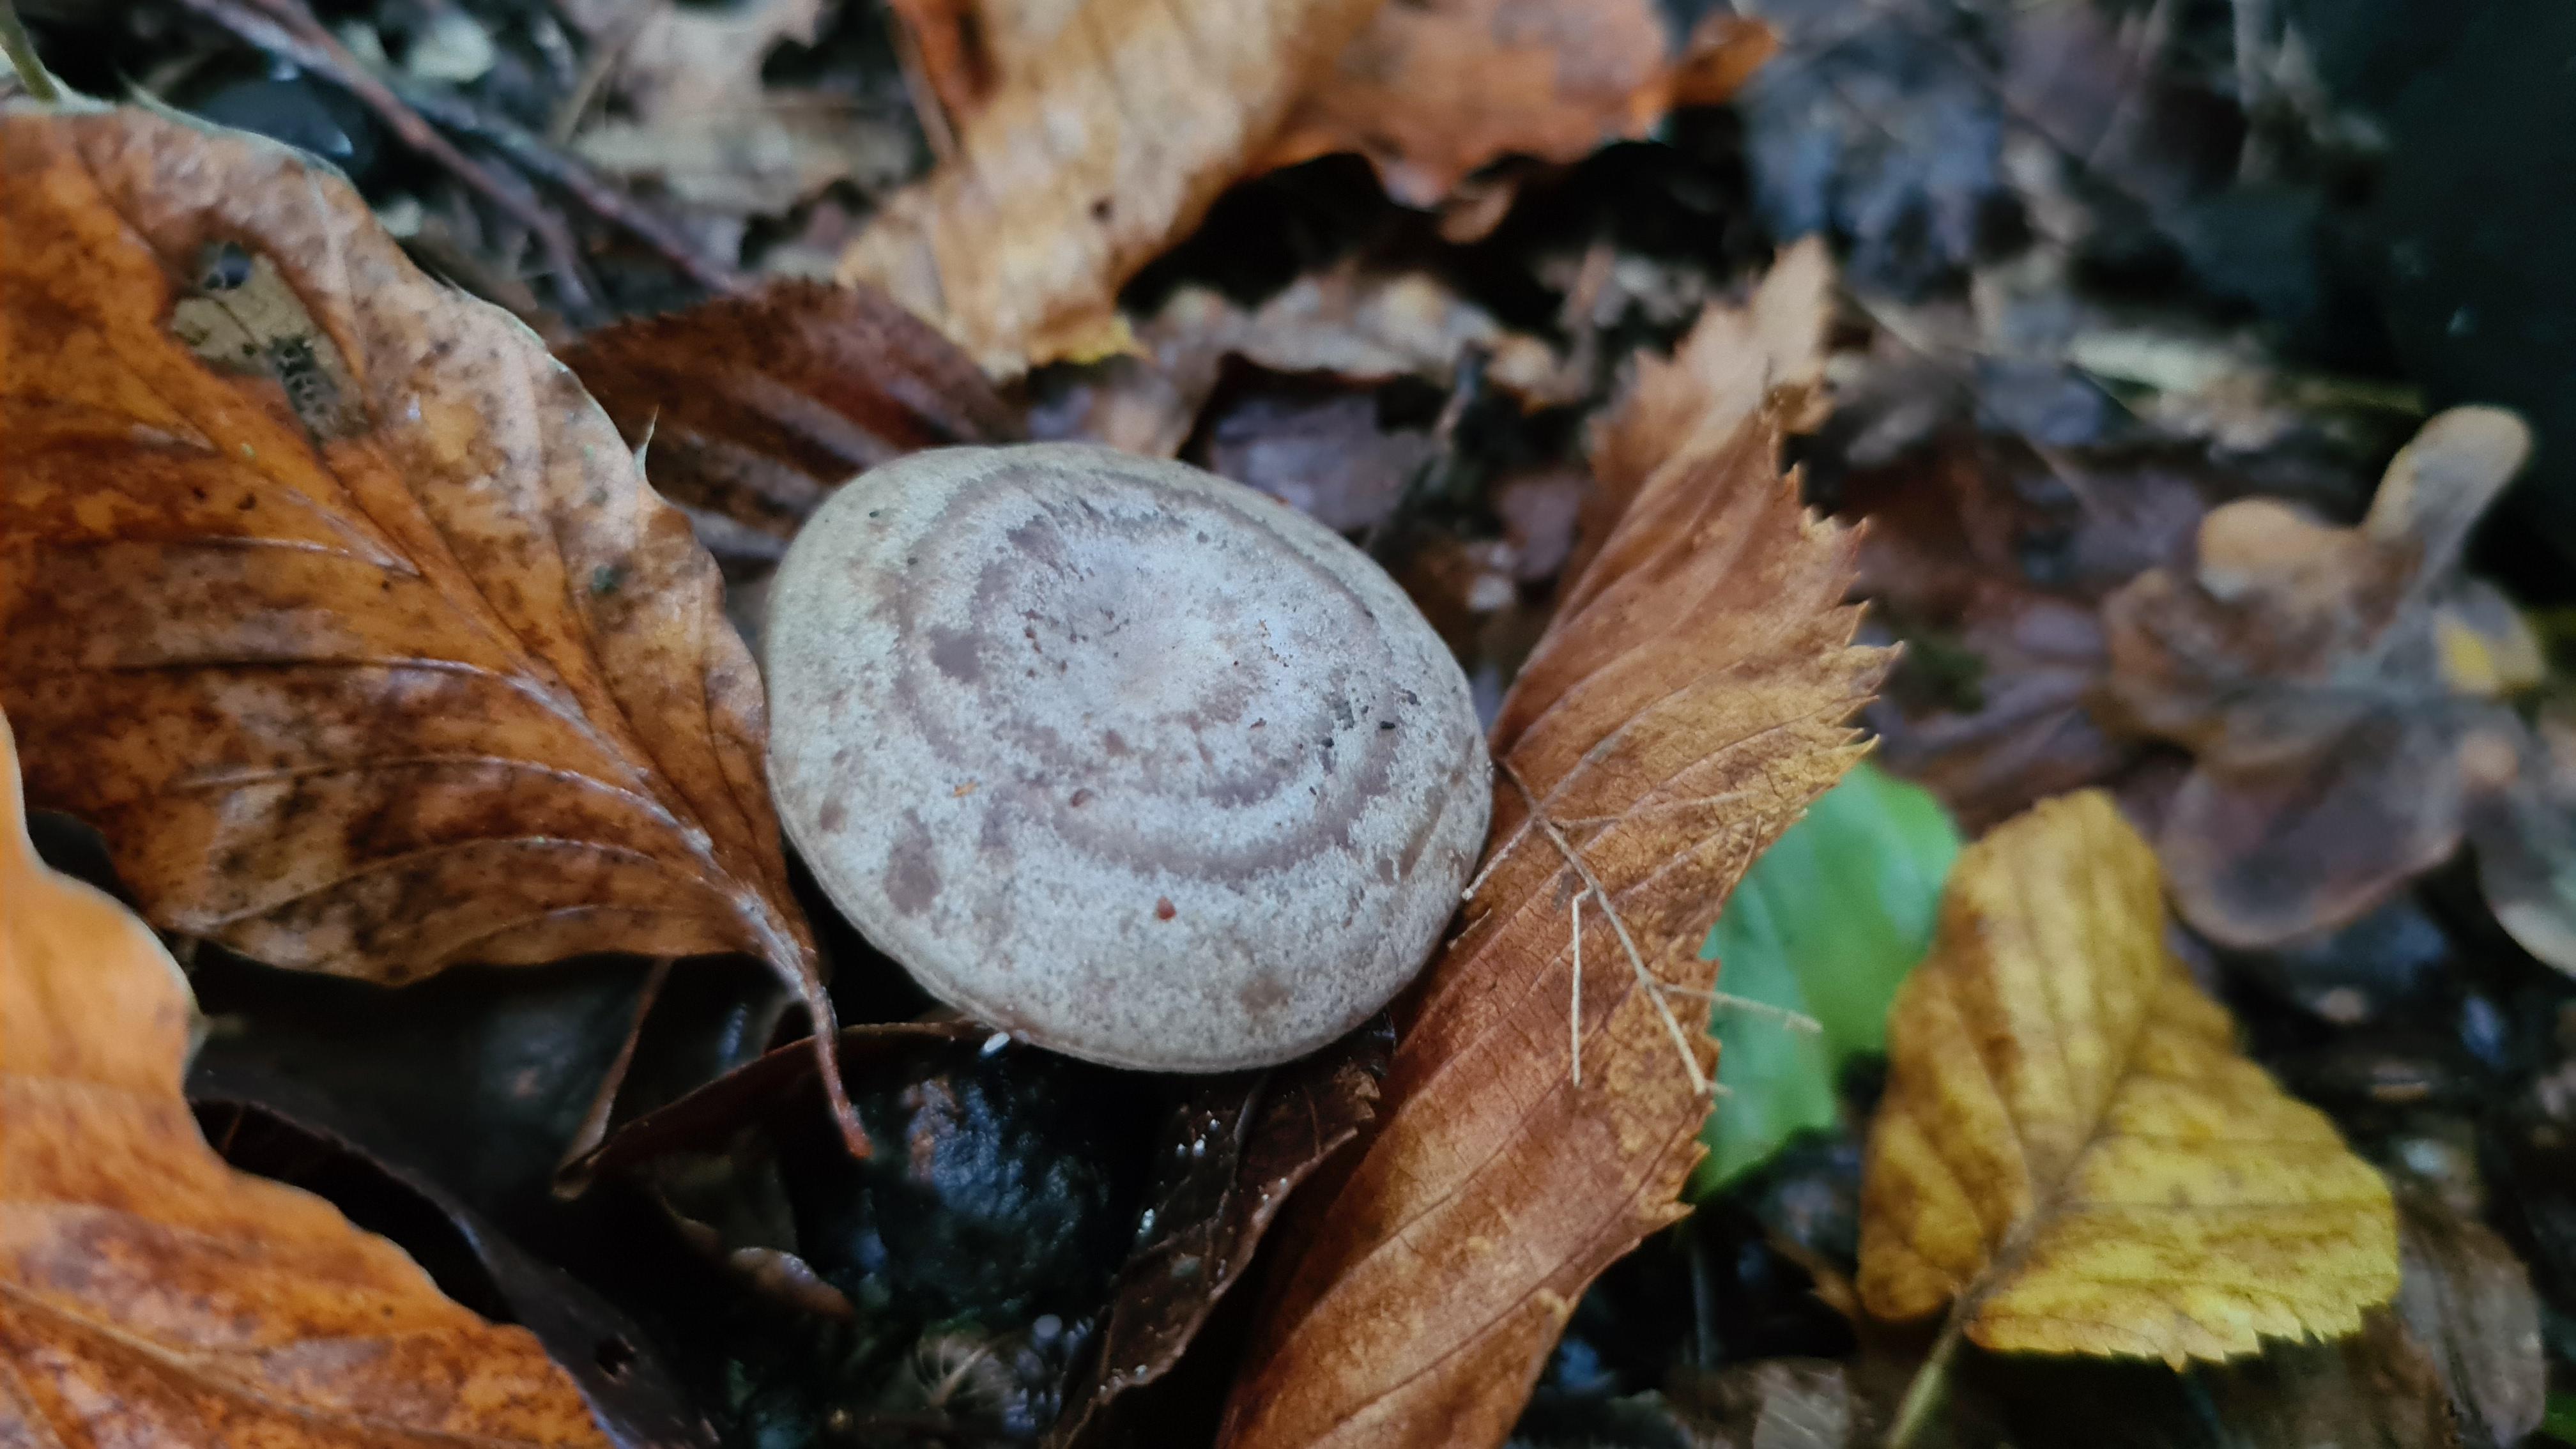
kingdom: Fungi
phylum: Basidiomycota
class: Agaricomycetes
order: Russulales
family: Russulaceae
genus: Lactarius
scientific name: Lactarius circellatus
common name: avnbøg-mælkehat
